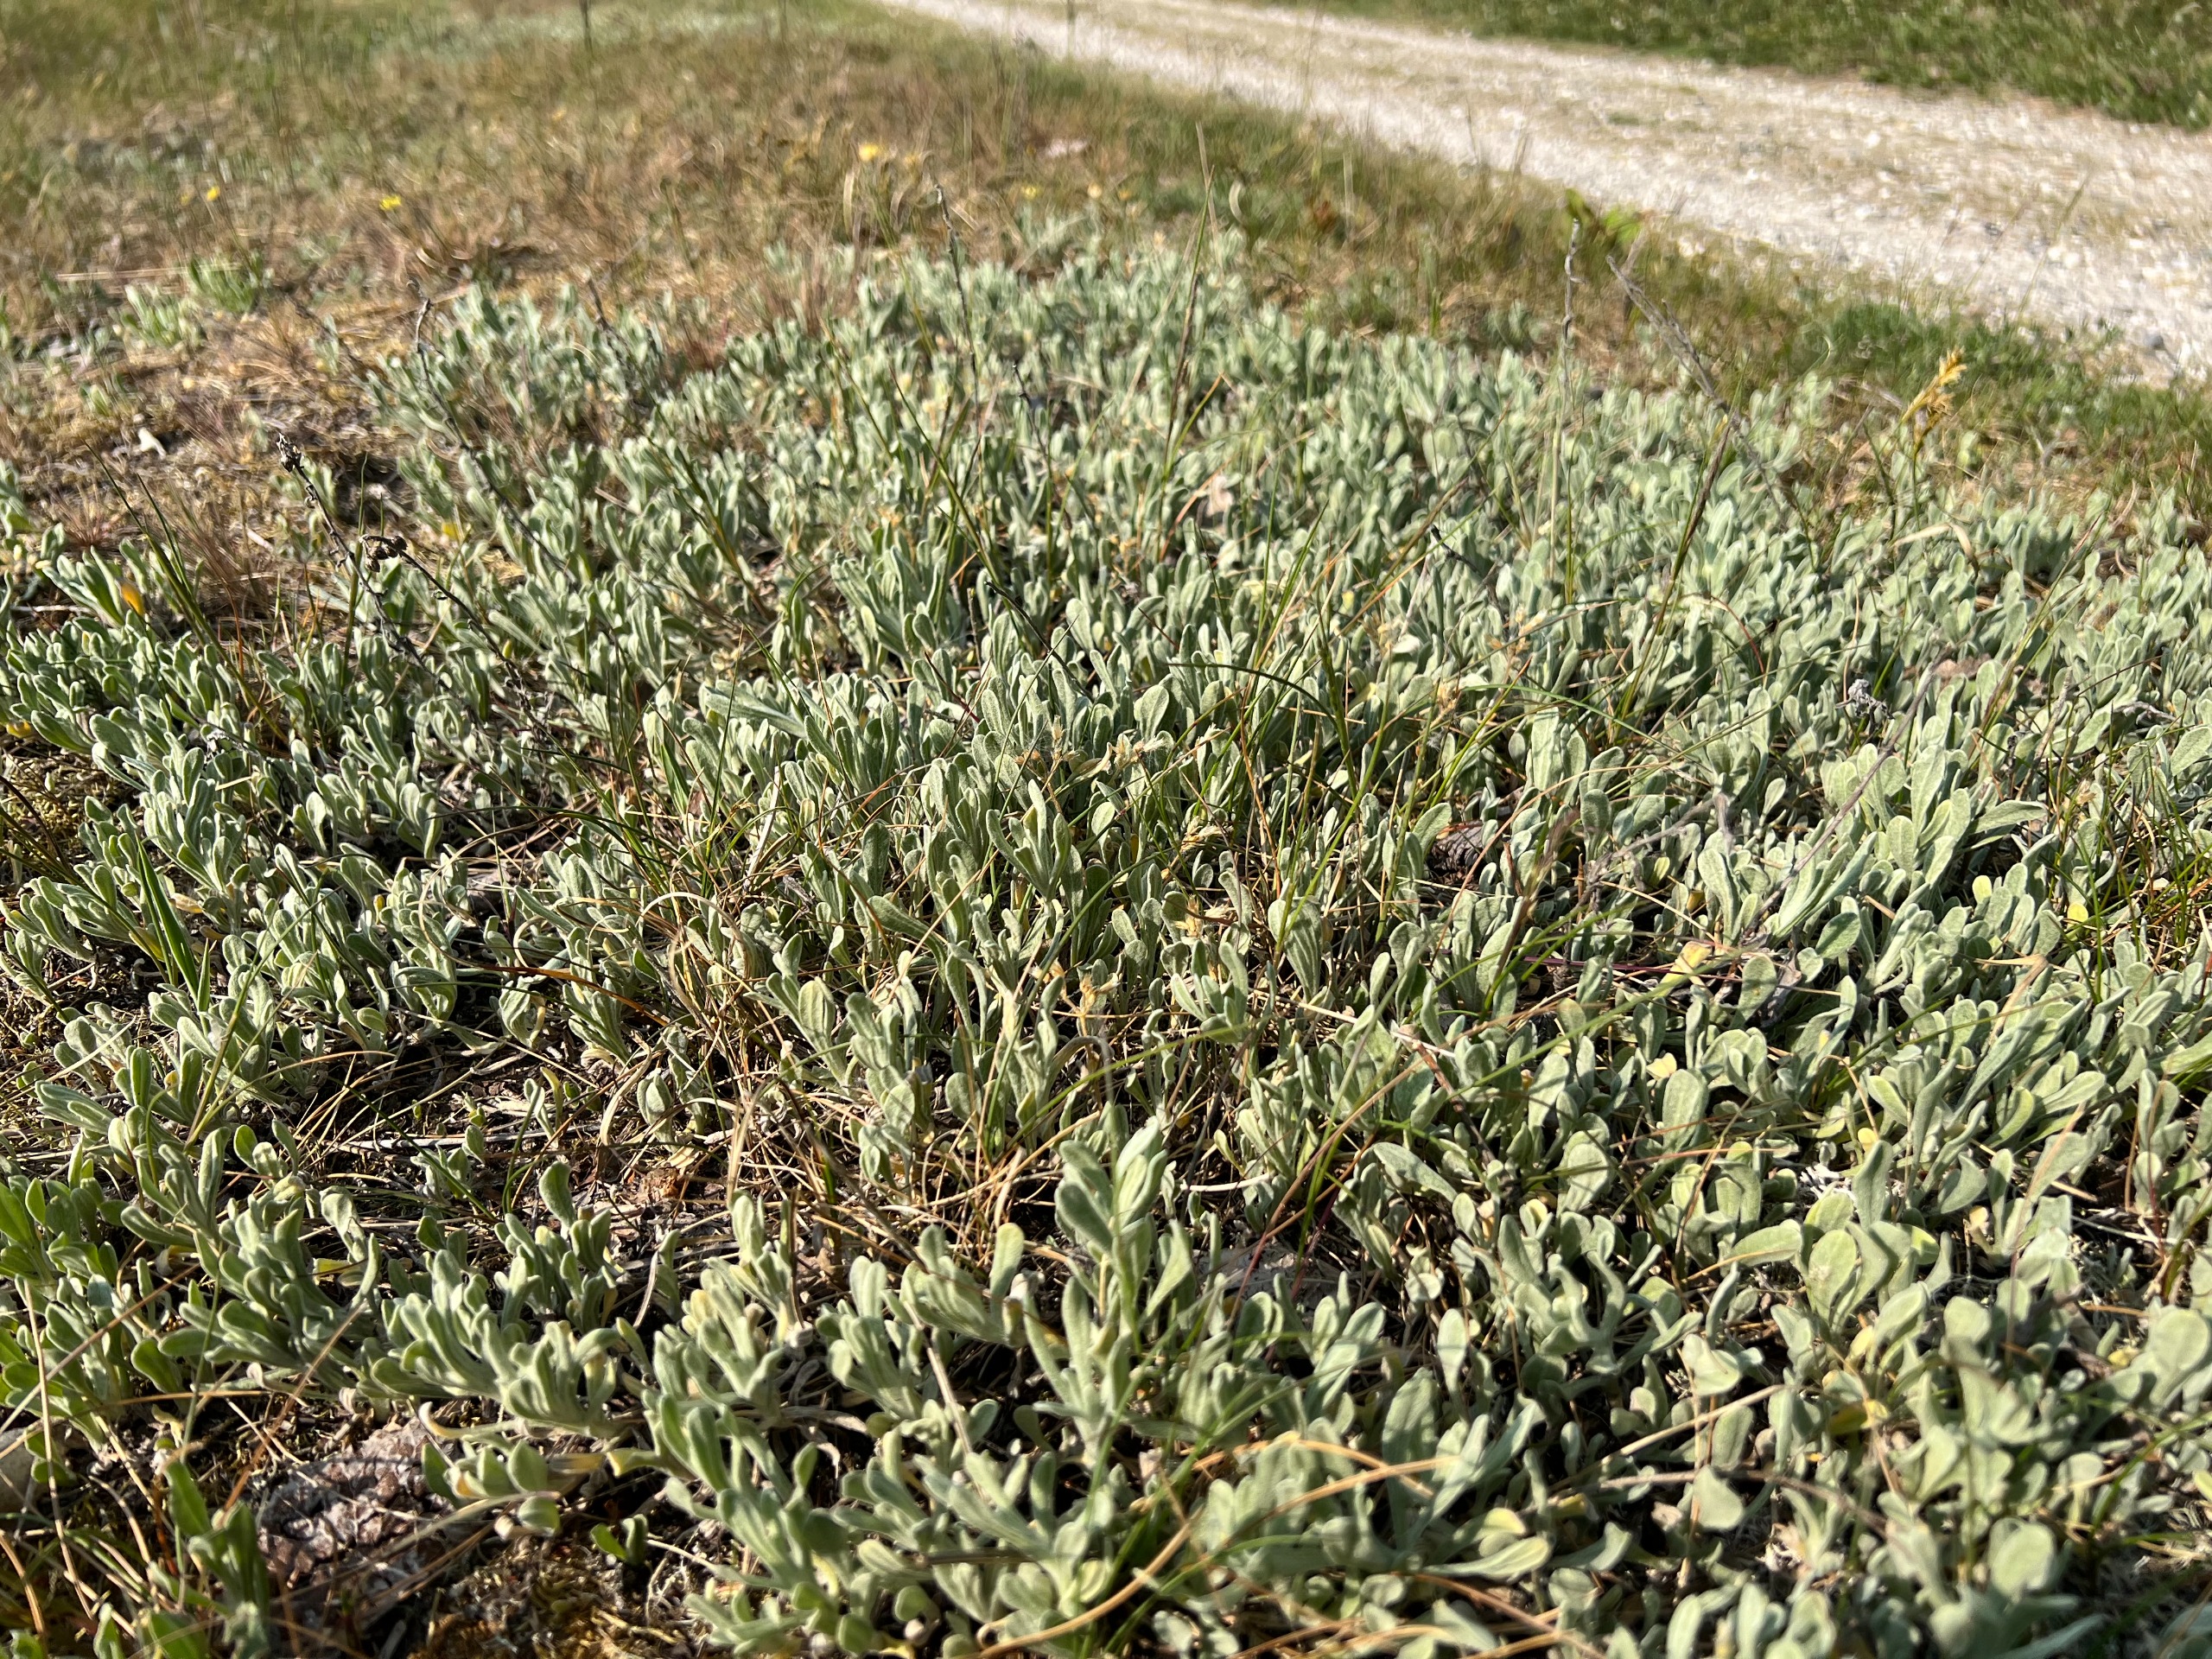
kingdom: Plantae
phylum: Tracheophyta
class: Magnoliopsida
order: Asterales
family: Asteraceae
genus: Helichrysum
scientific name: Helichrysum arenarium
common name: Gul evighedsblomst
